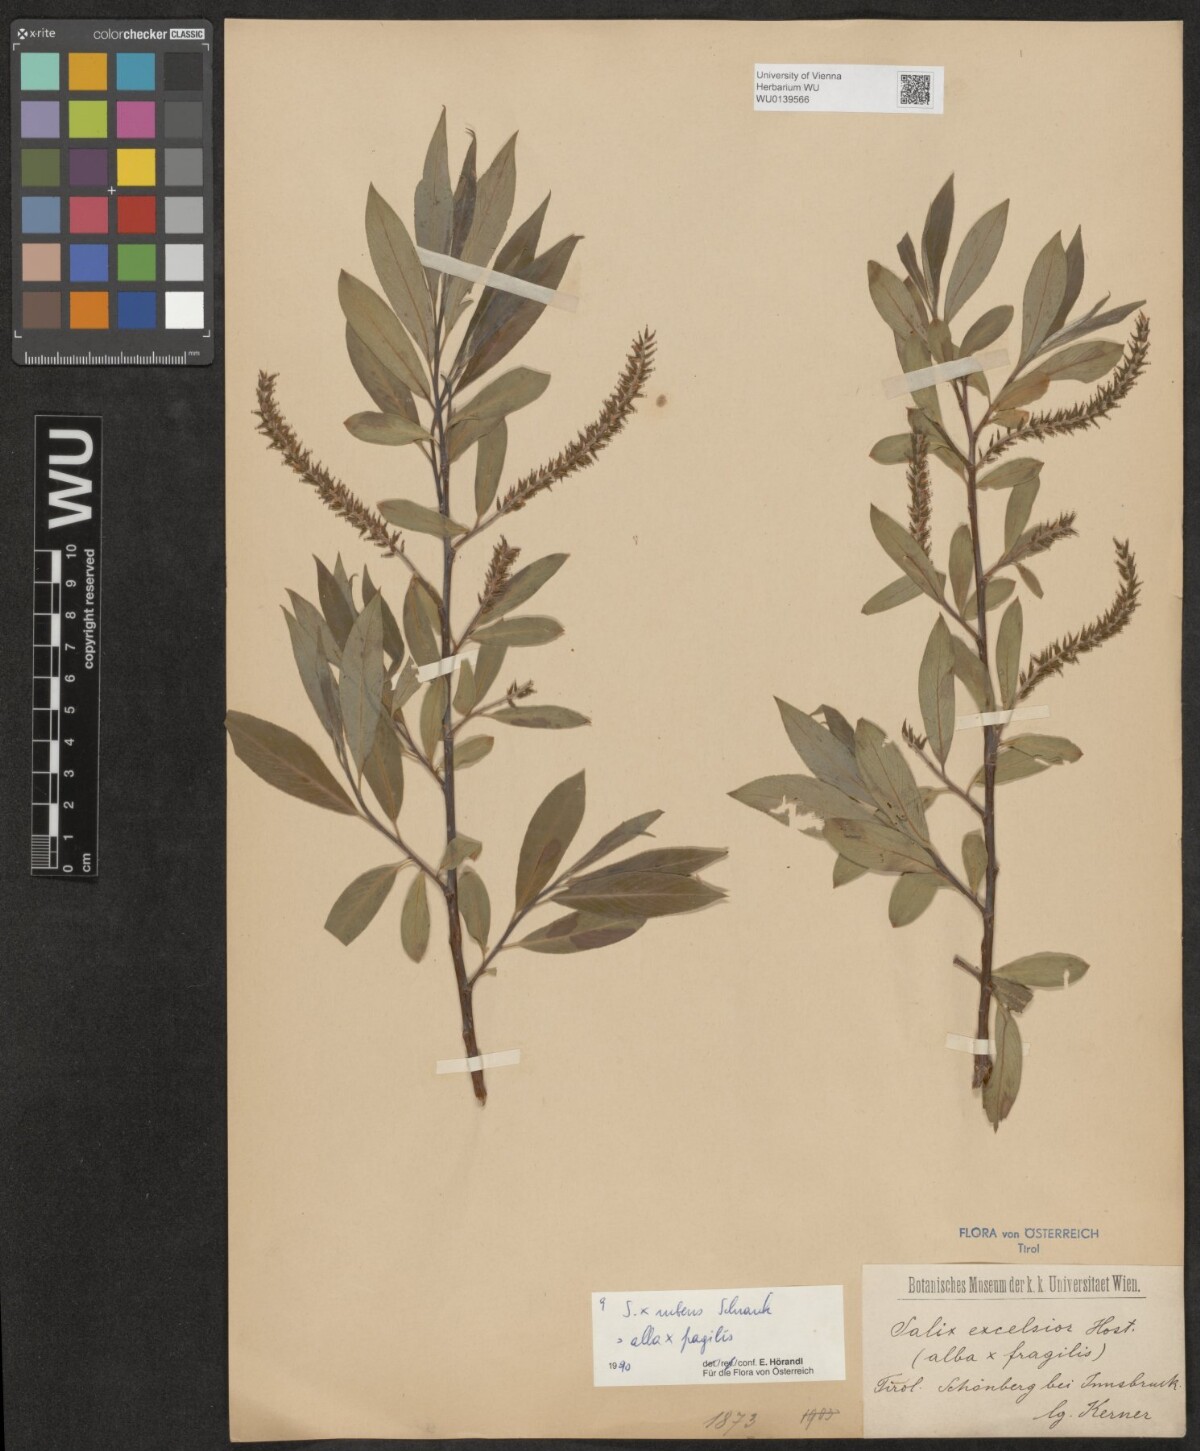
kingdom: Plantae
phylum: Tracheophyta
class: Magnoliopsida
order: Malpighiales
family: Salicaceae
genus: Salix
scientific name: Salix rubens
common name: Hybrid crack willow
